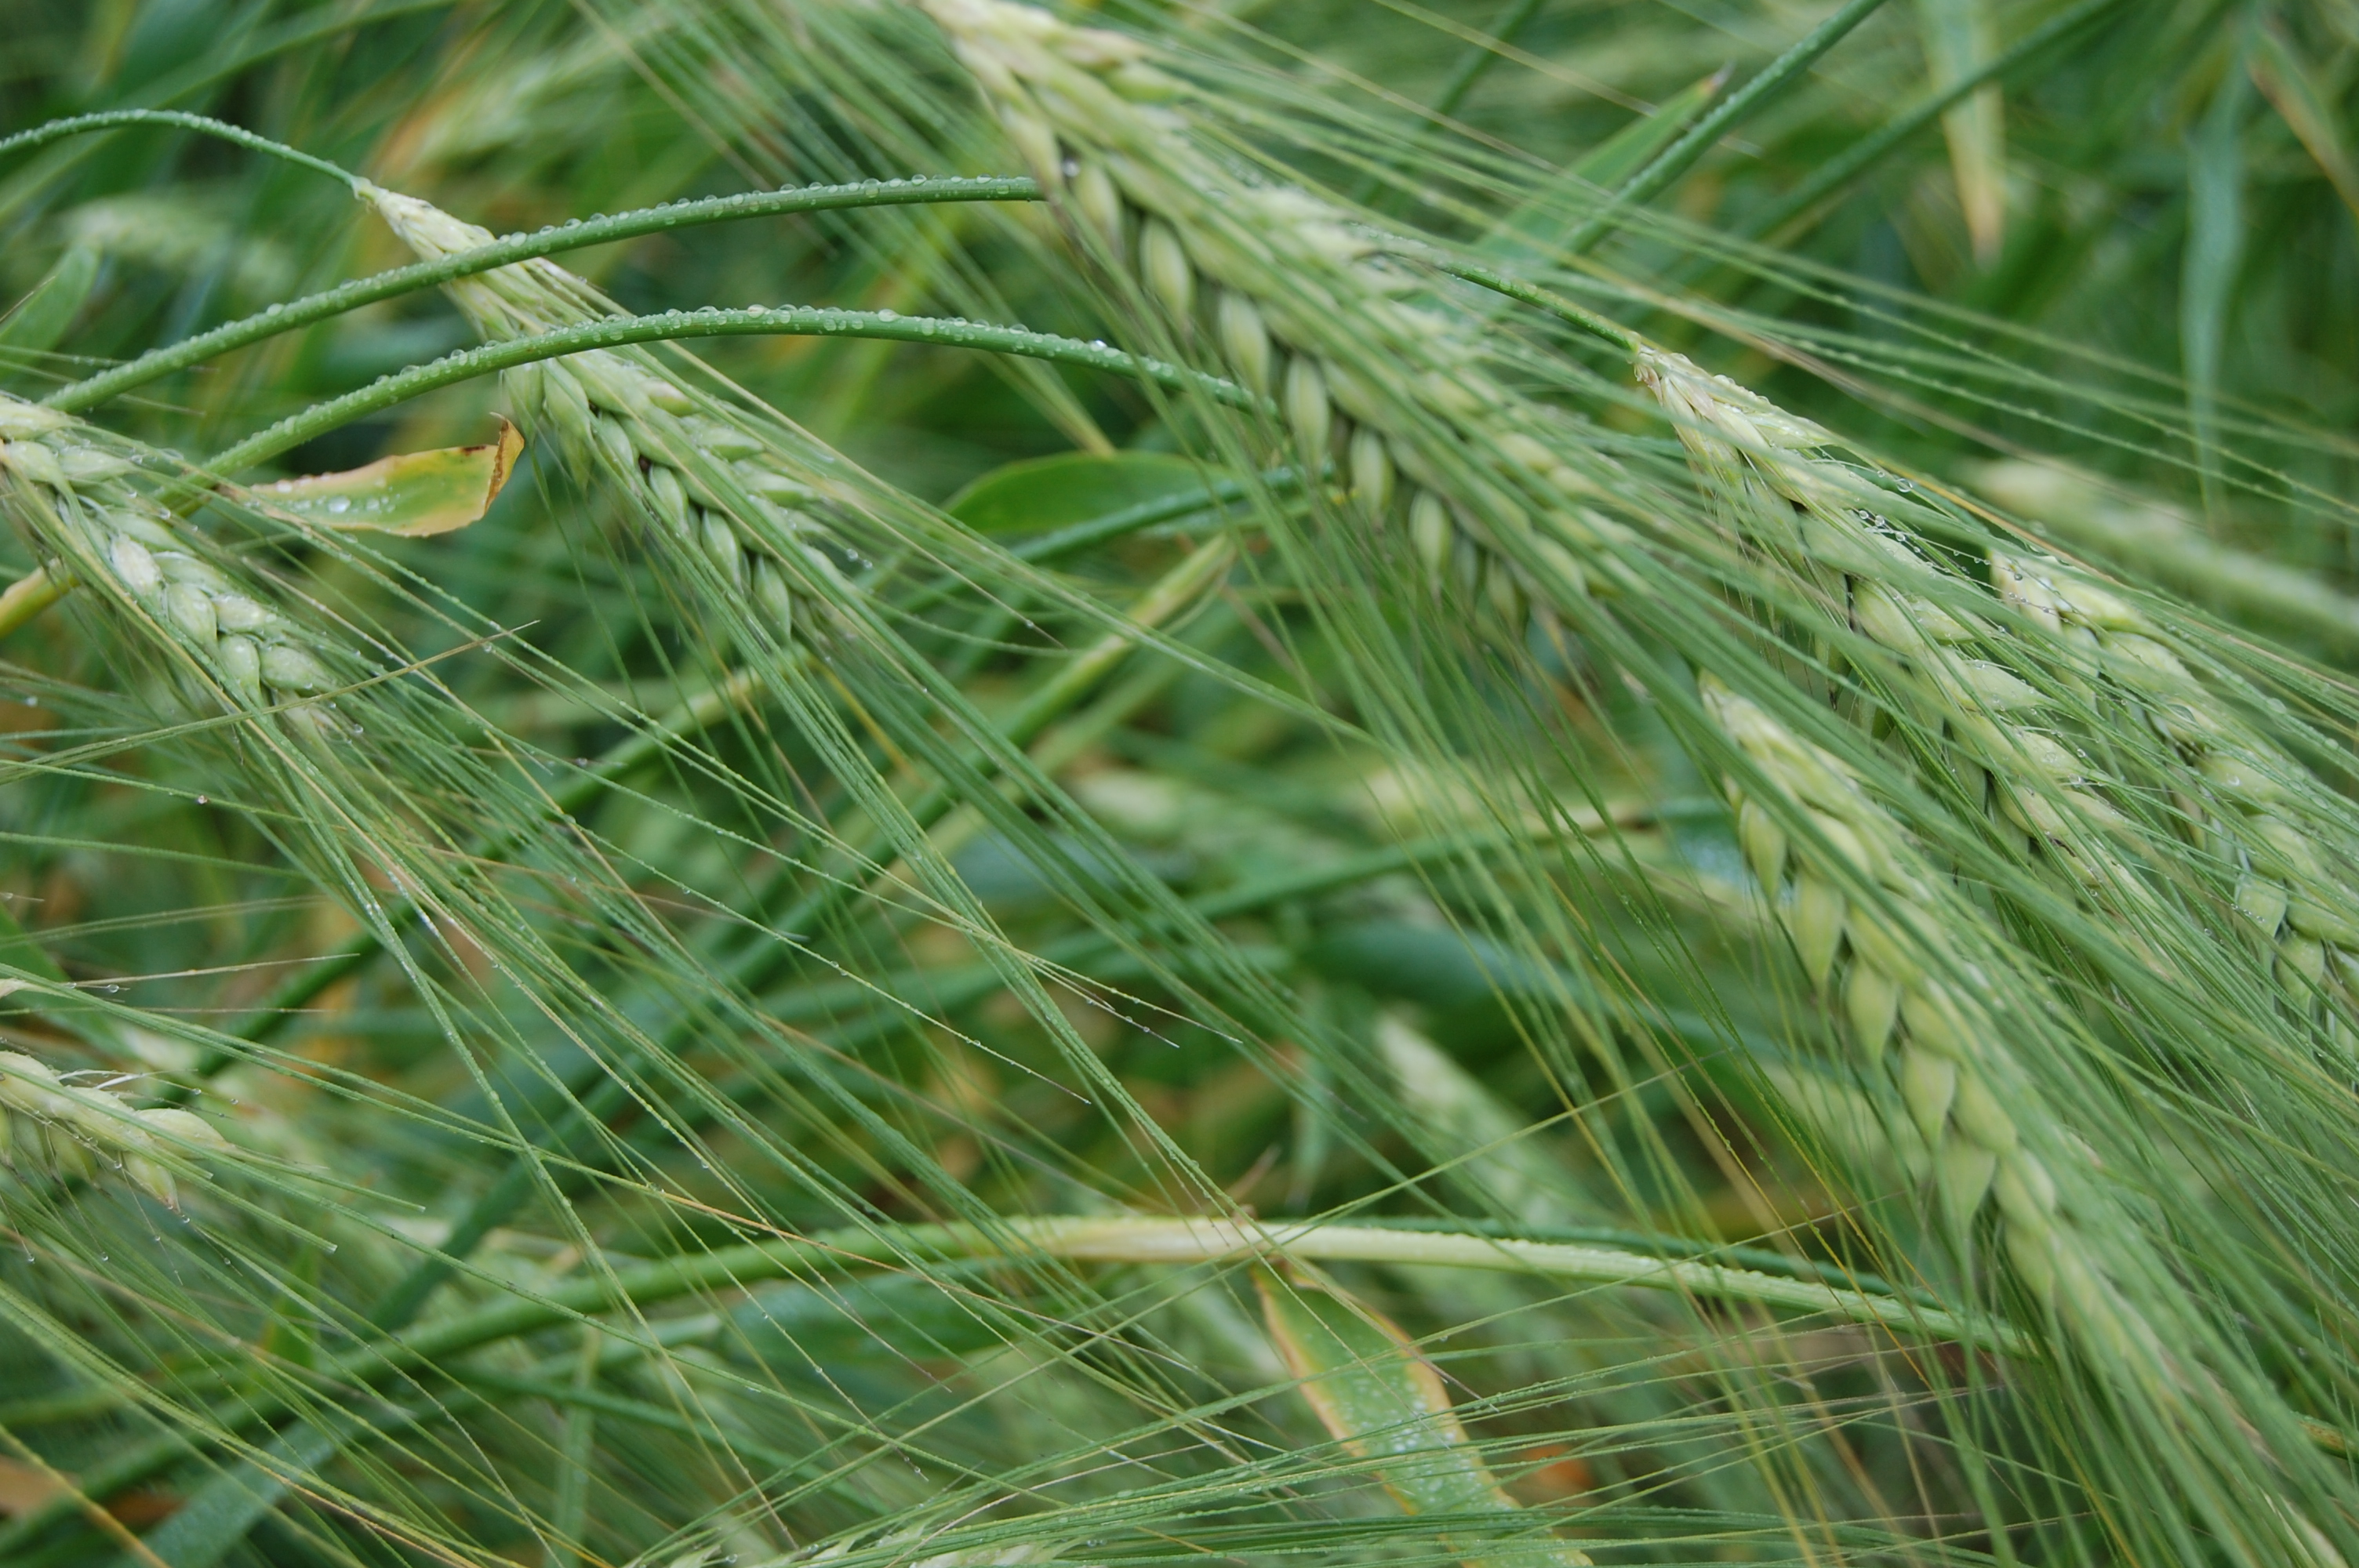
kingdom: Plantae
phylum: Tracheophyta
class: Liliopsida
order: Poales
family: Poaceae
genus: Hordeum
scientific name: Hordeum vulgare
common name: Common barley
